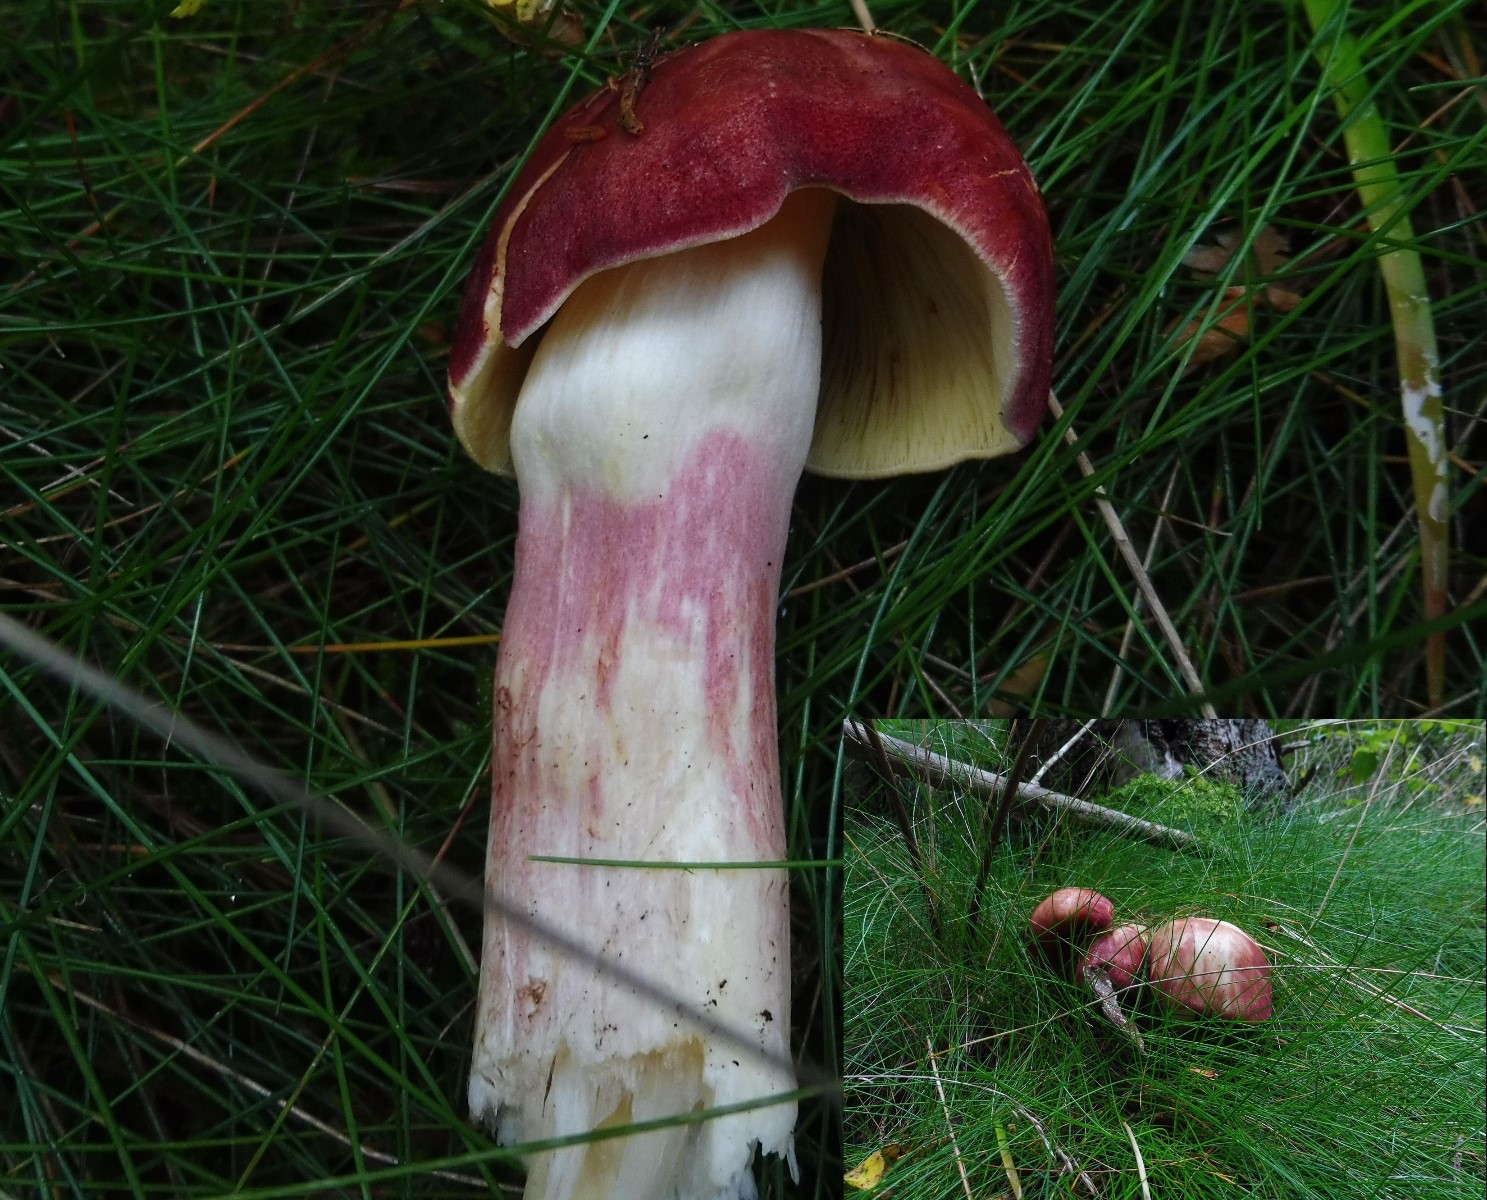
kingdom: Fungi
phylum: Basidiomycota
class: Agaricomycetes
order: Agaricales
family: Tricholomataceae
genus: Tricholomopsis
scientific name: Tricholomopsis rutilans
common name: purpur-væbnerhat
